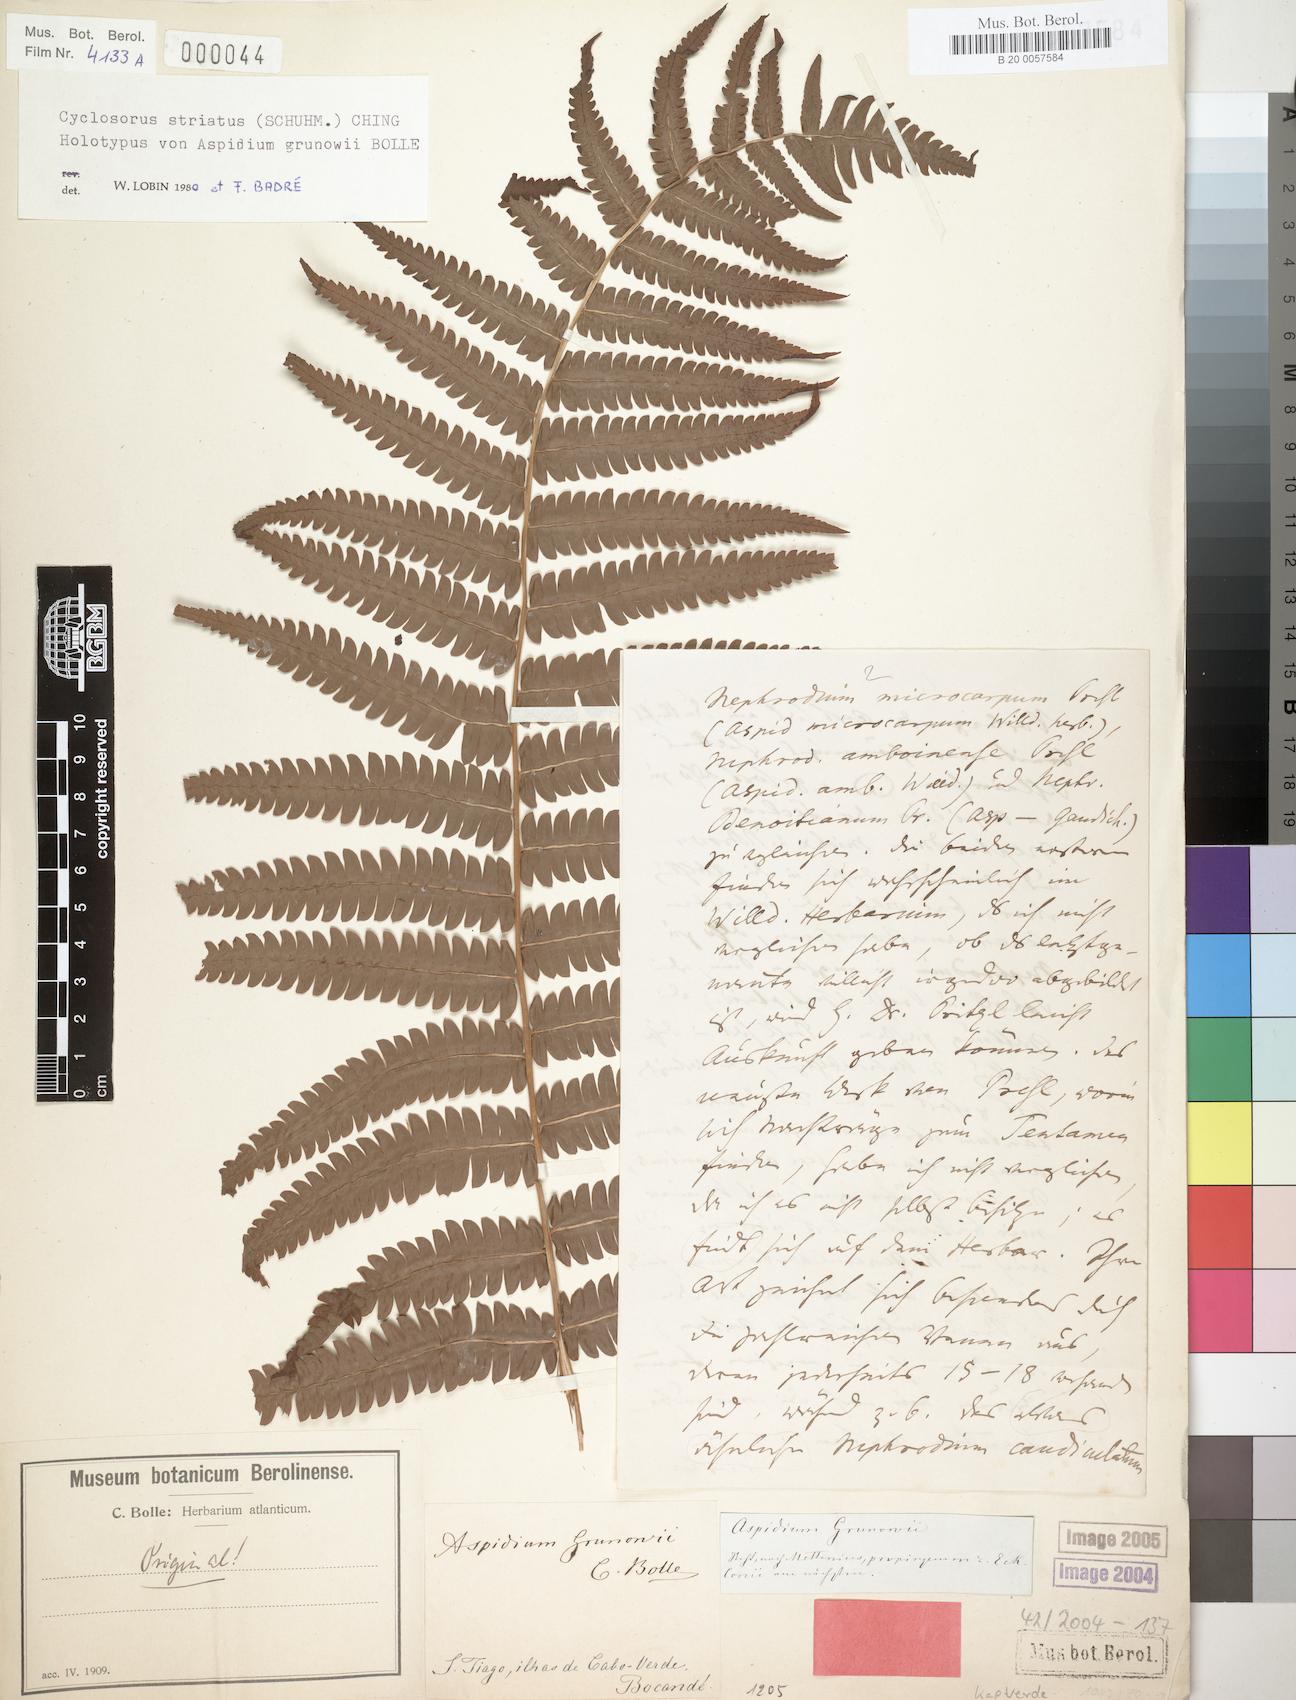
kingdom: Plantae
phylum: Tracheophyta
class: Polypodiopsida
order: Polypodiales
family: Thelypteridaceae
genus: Cyclosorus
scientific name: Cyclosorus striatus
